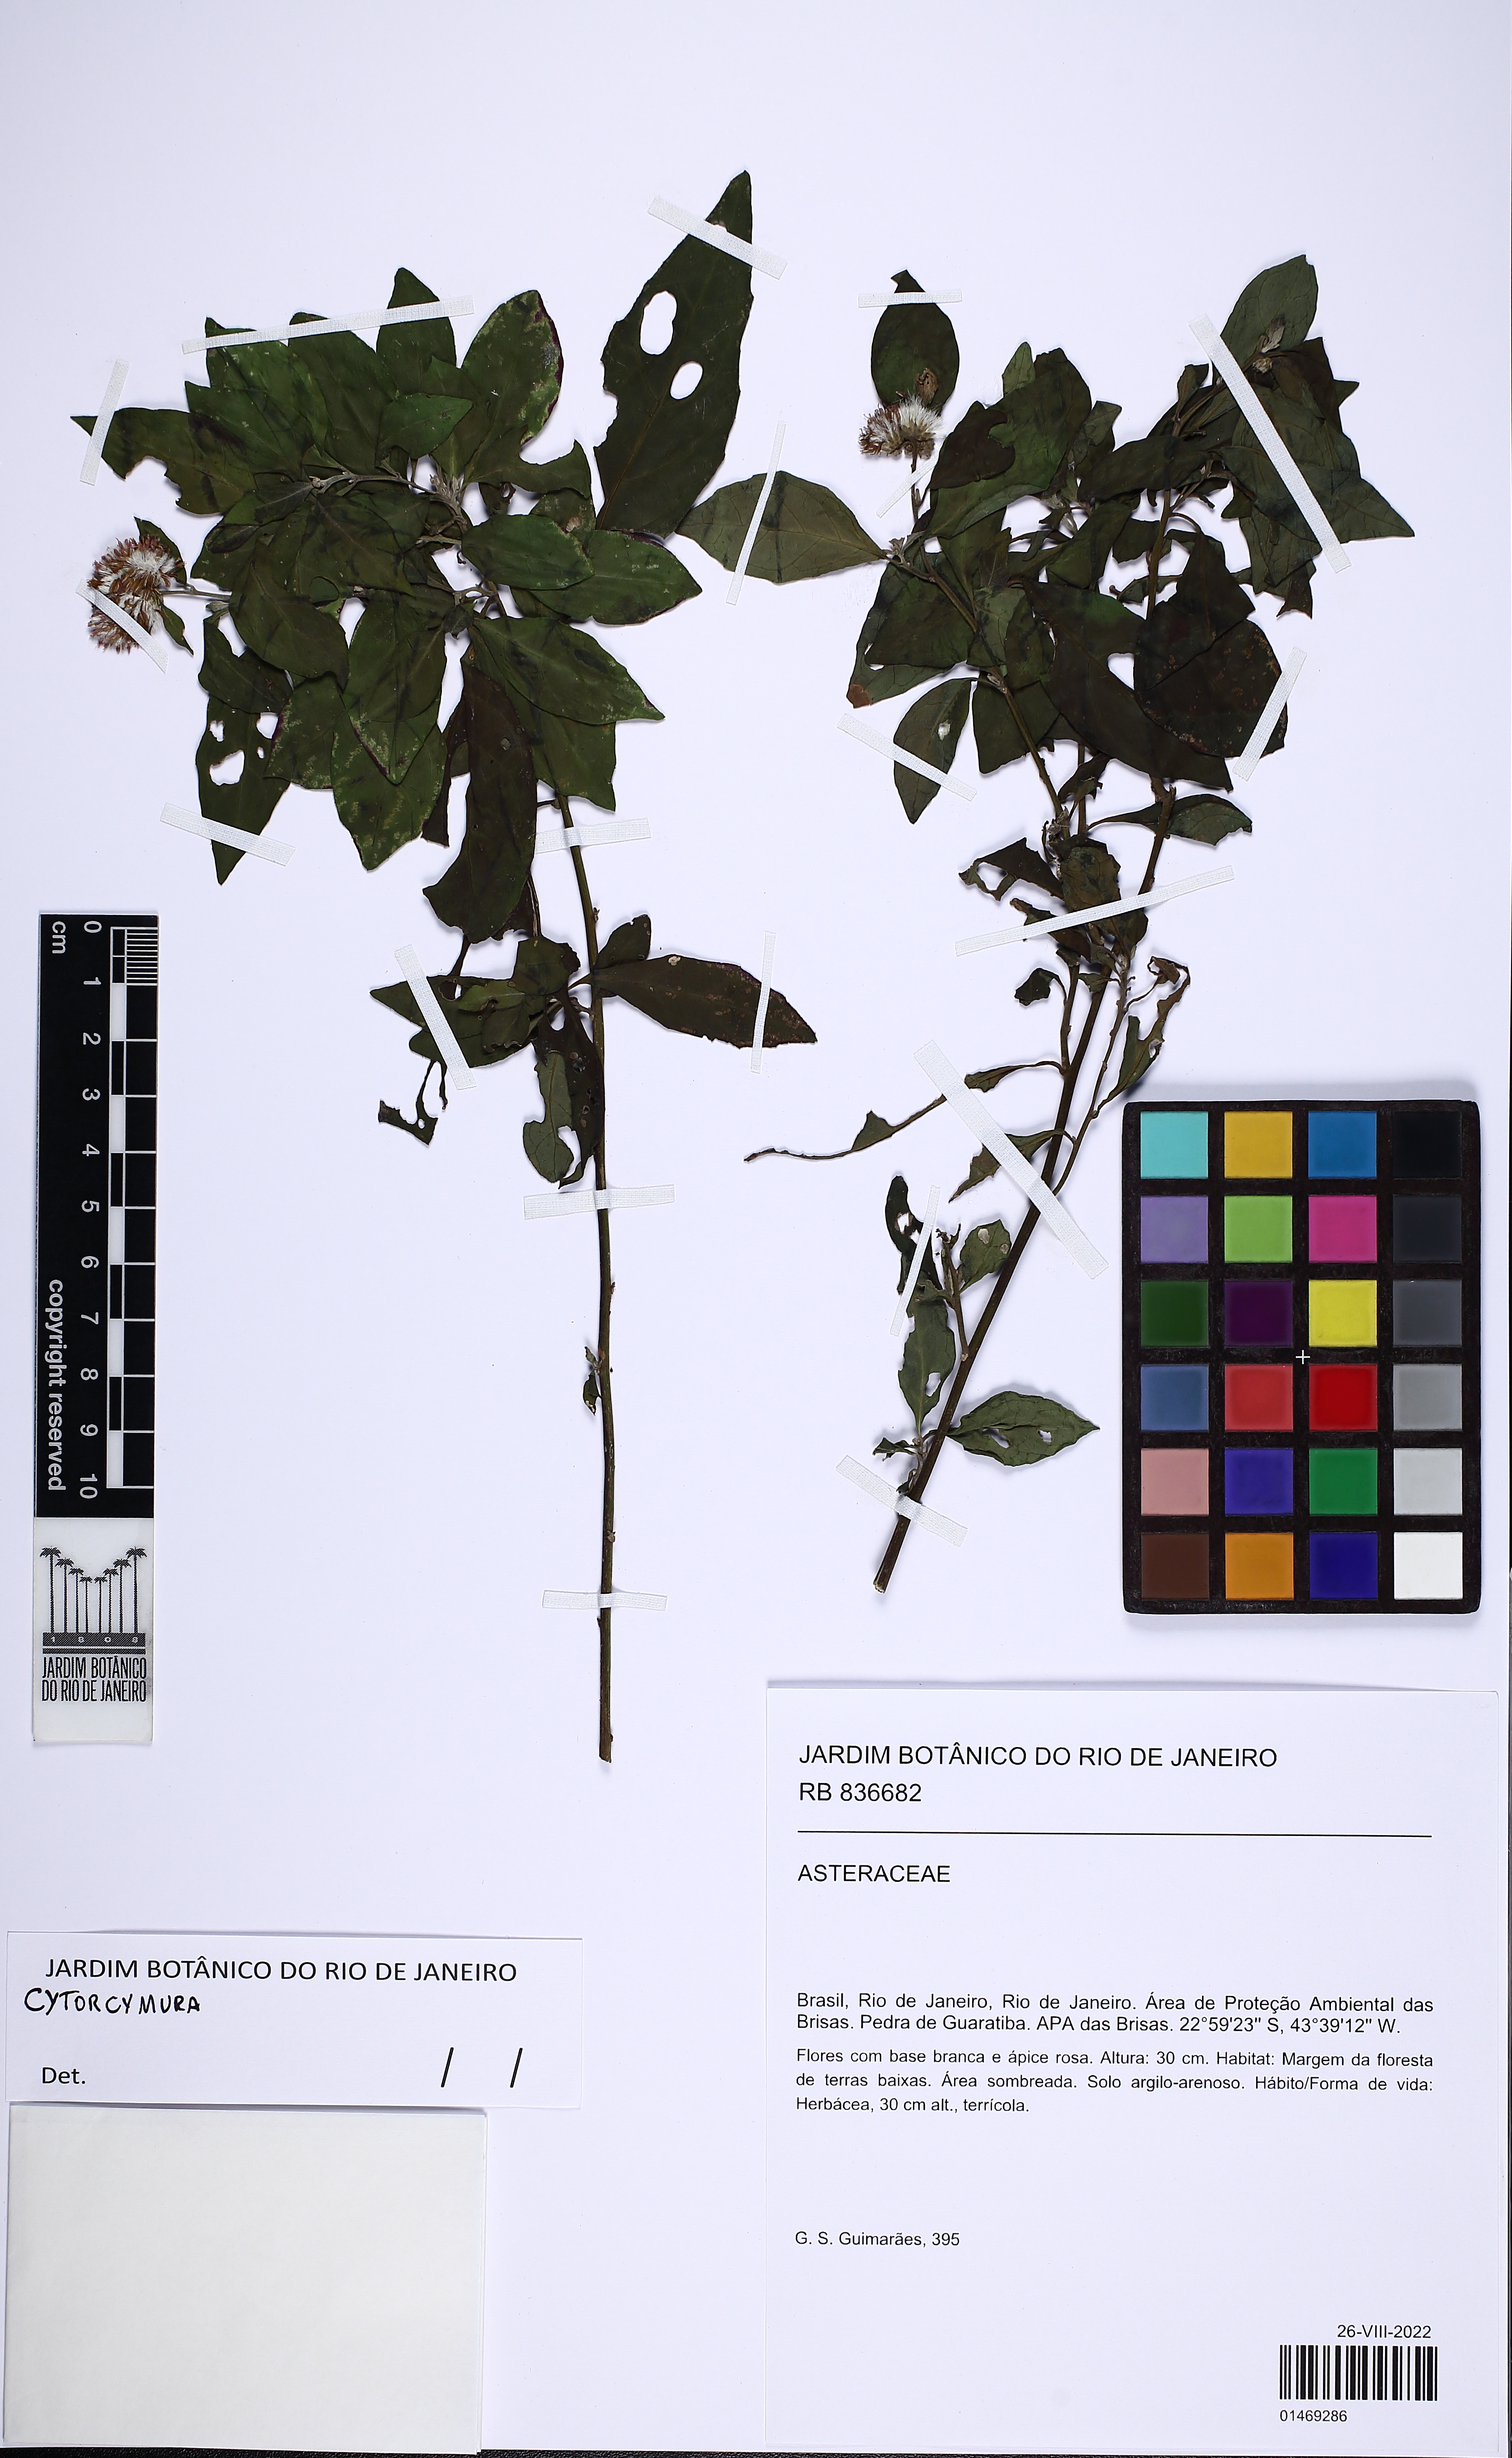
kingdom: Plantae
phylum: Tracheophyta
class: Magnoliopsida
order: Asterales
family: Asteraceae
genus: Cyrtocymura
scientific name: Cyrtocymura
